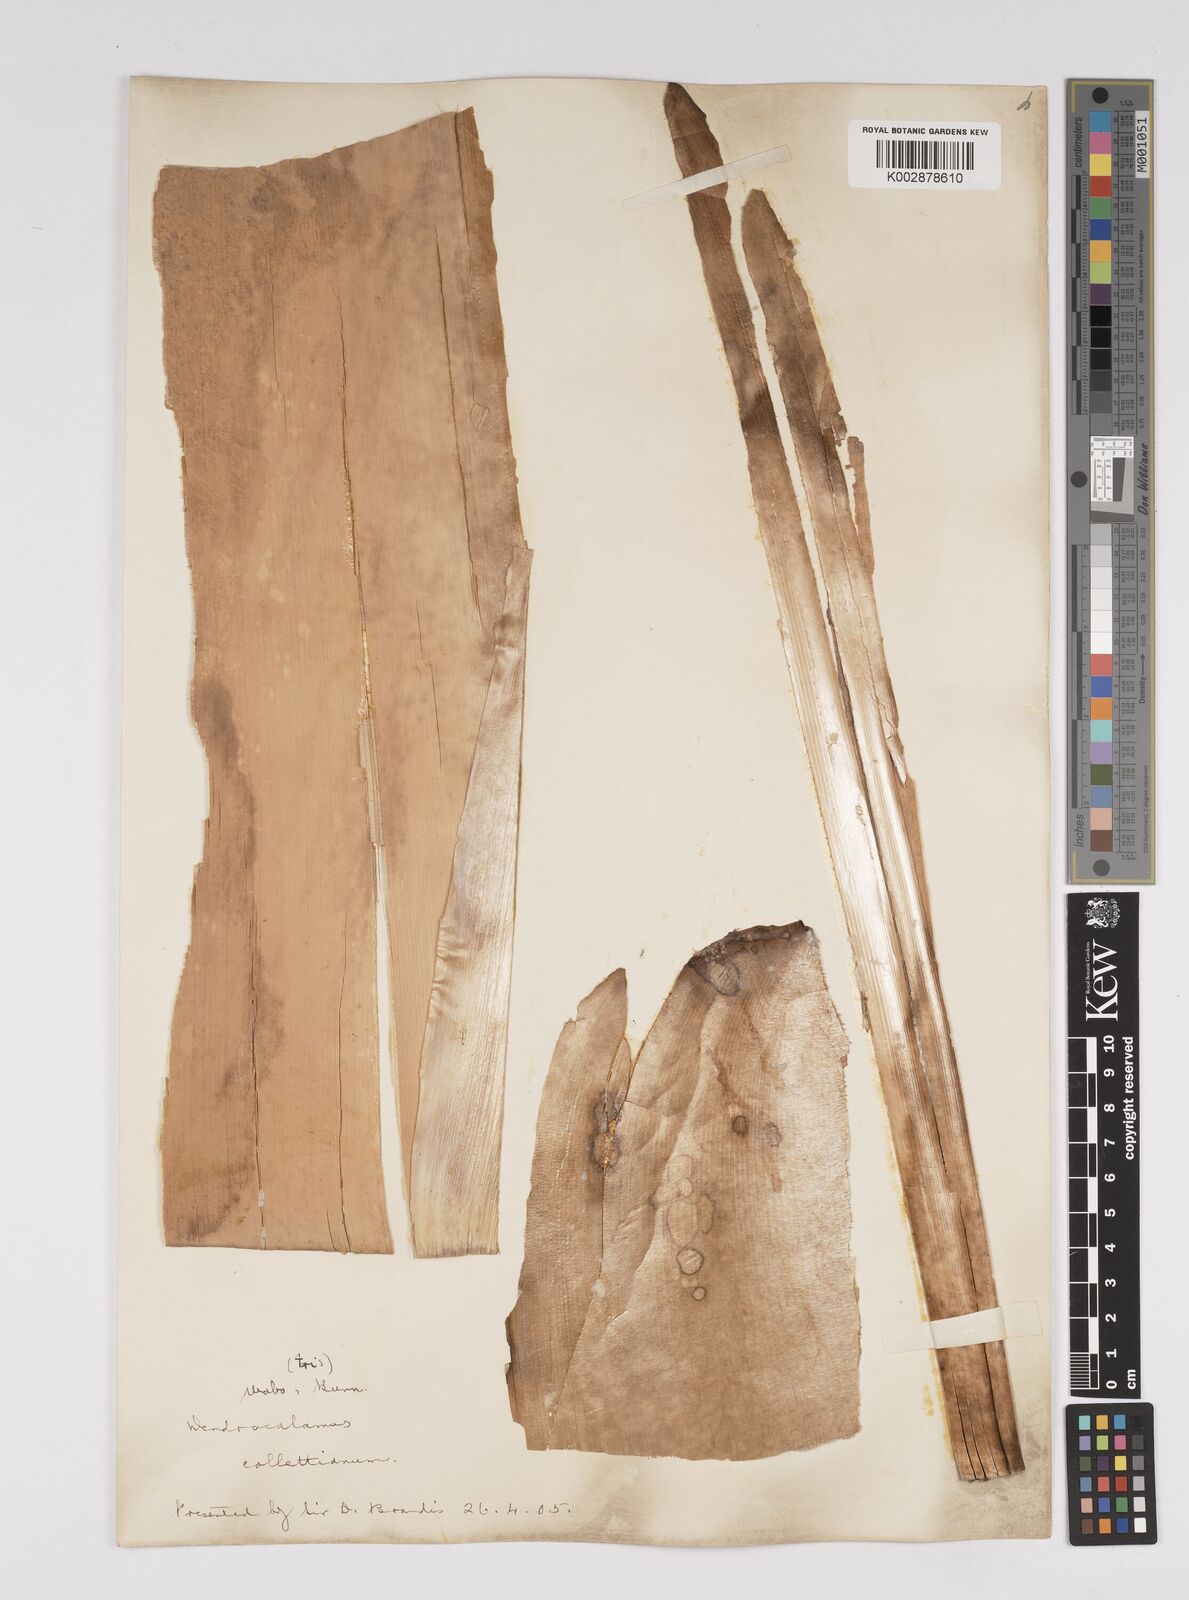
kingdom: Plantae
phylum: Tracheophyta
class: Liliopsida
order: Poales
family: Poaceae
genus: Dendrocalamus
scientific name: Dendrocalamus collettianus
